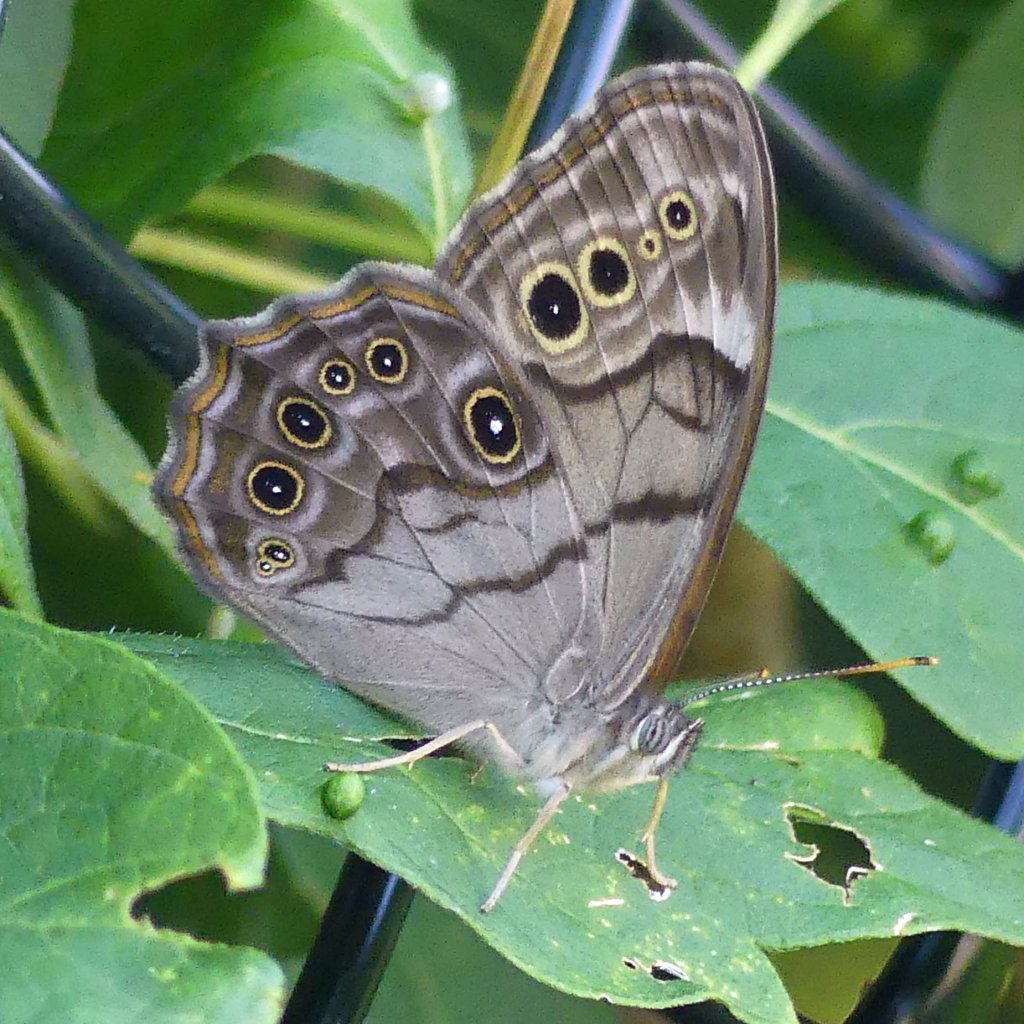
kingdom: Animalia
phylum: Arthropoda
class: Insecta
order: Lepidoptera
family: Nymphalidae
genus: Lethe
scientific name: Lethe anthedon
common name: Northern Pearly-Eye
